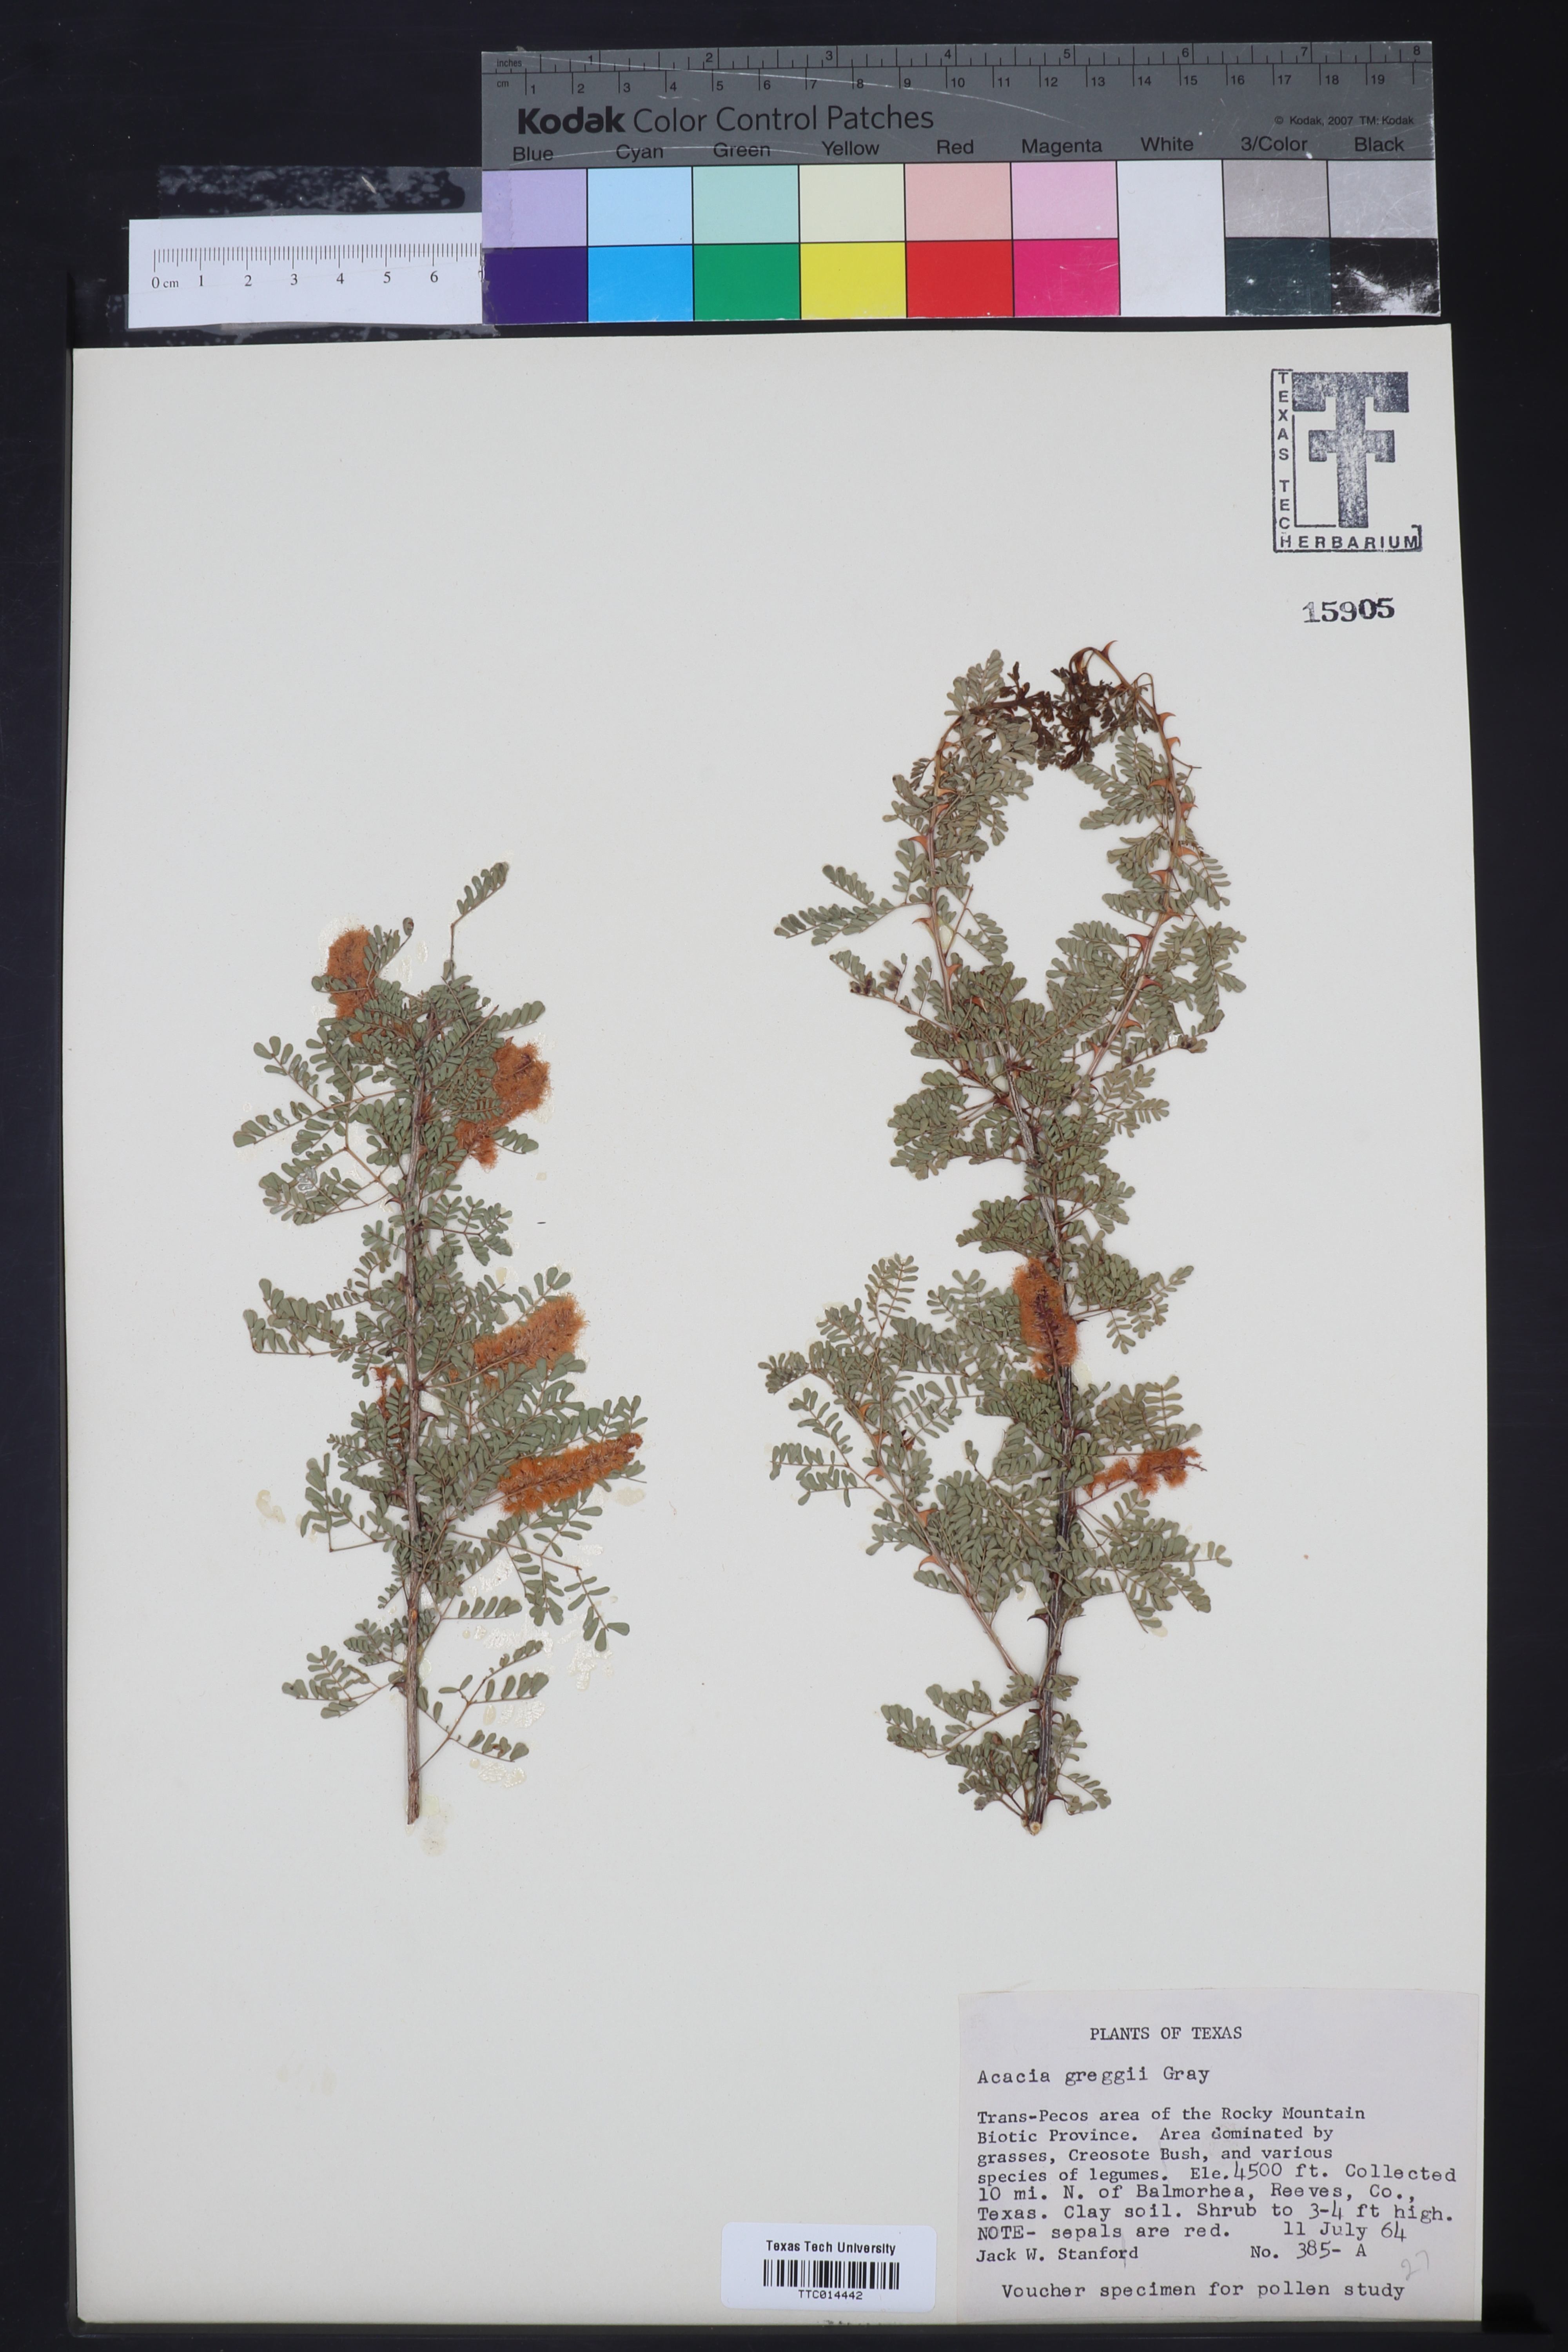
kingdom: Plantae
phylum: Tracheophyta
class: Magnoliopsida
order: Fabales
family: Fabaceae
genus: Senegalia
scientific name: Senegalia greggii
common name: Texas-mimosa
